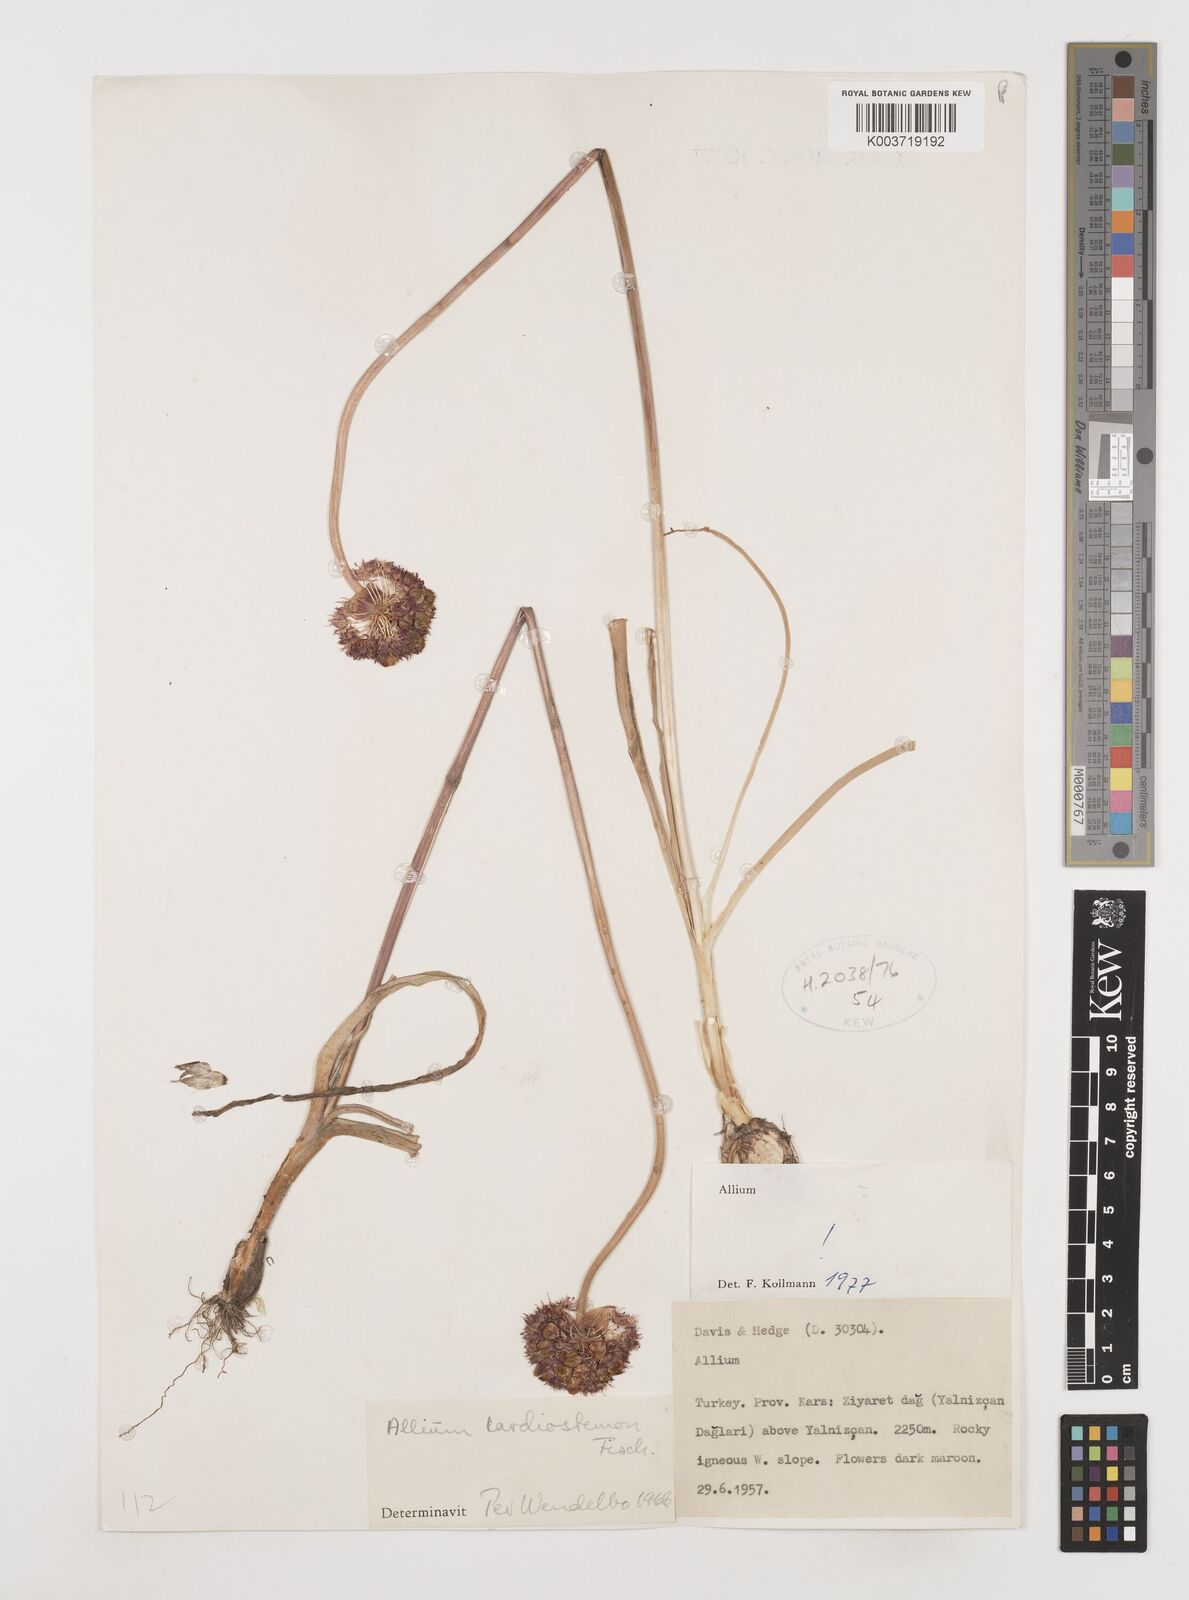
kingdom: Plantae
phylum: Tracheophyta
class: Liliopsida
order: Asparagales
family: Amaryllidaceae
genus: Allium
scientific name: Allium cardiostemon
